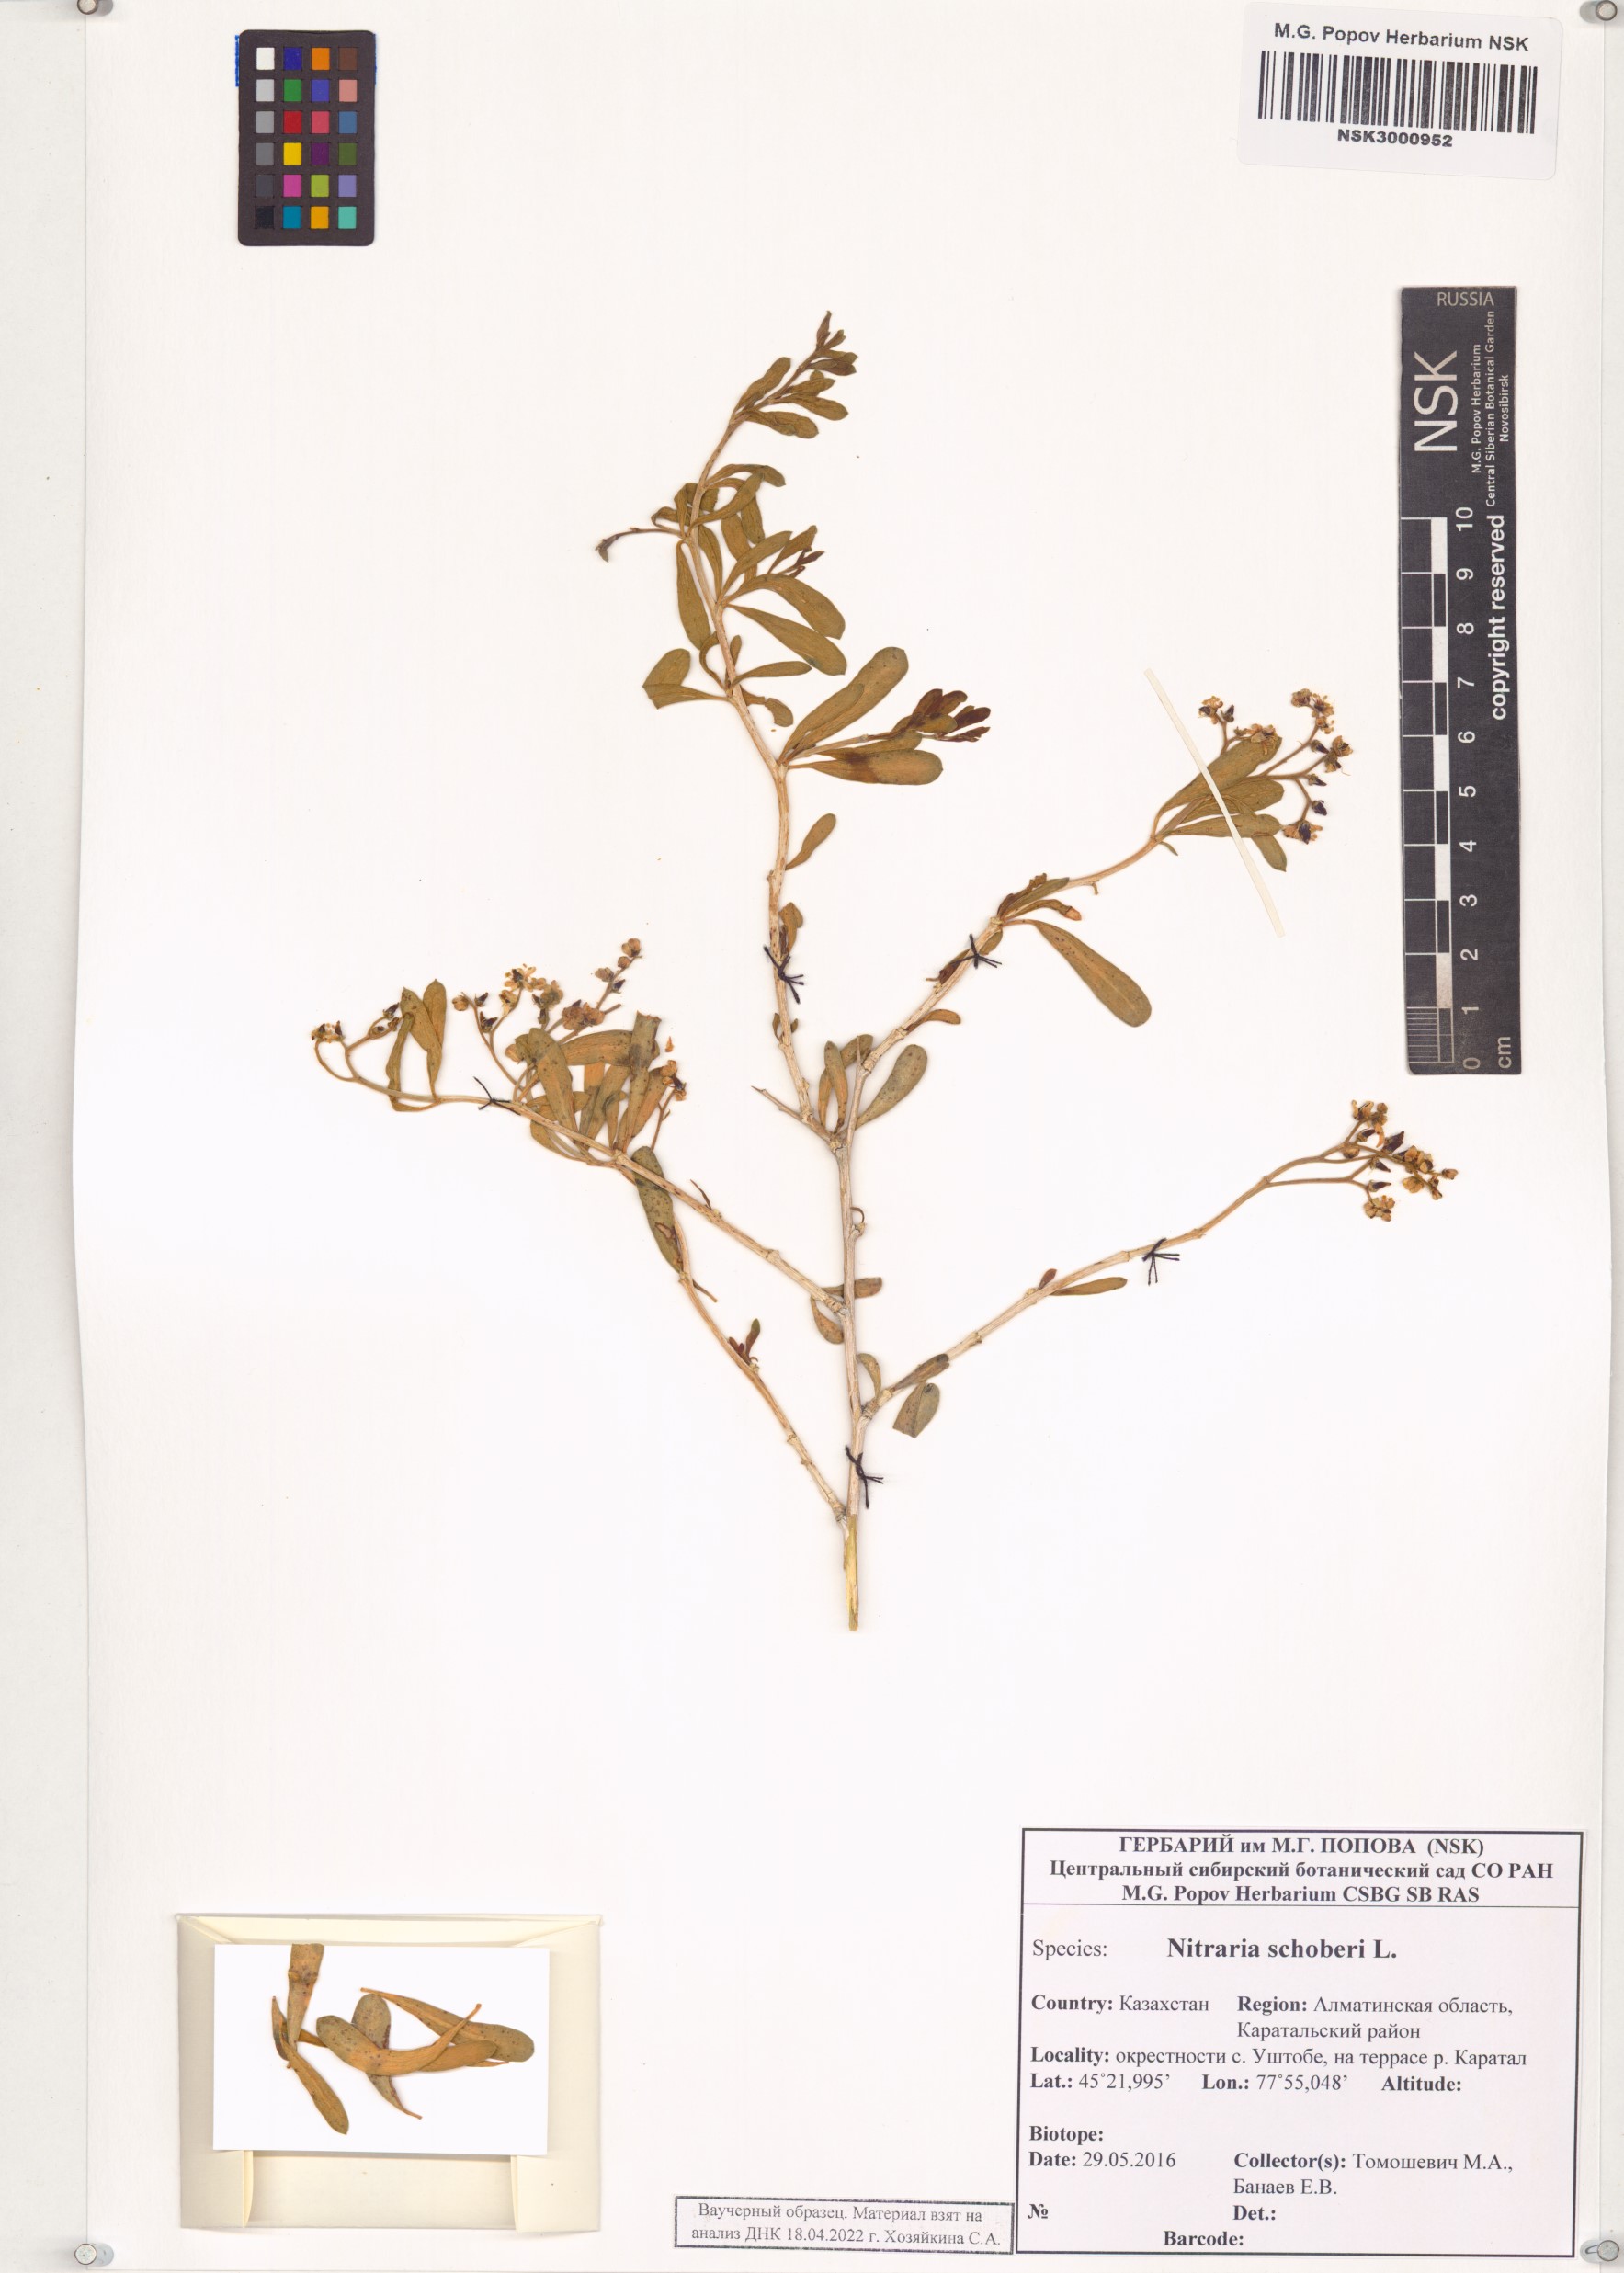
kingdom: Plantae
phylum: Tracheophyta
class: Magnoliopsida
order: Sapindales
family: Nitrariaceae
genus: Nitraria
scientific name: Nitraria schoberi
